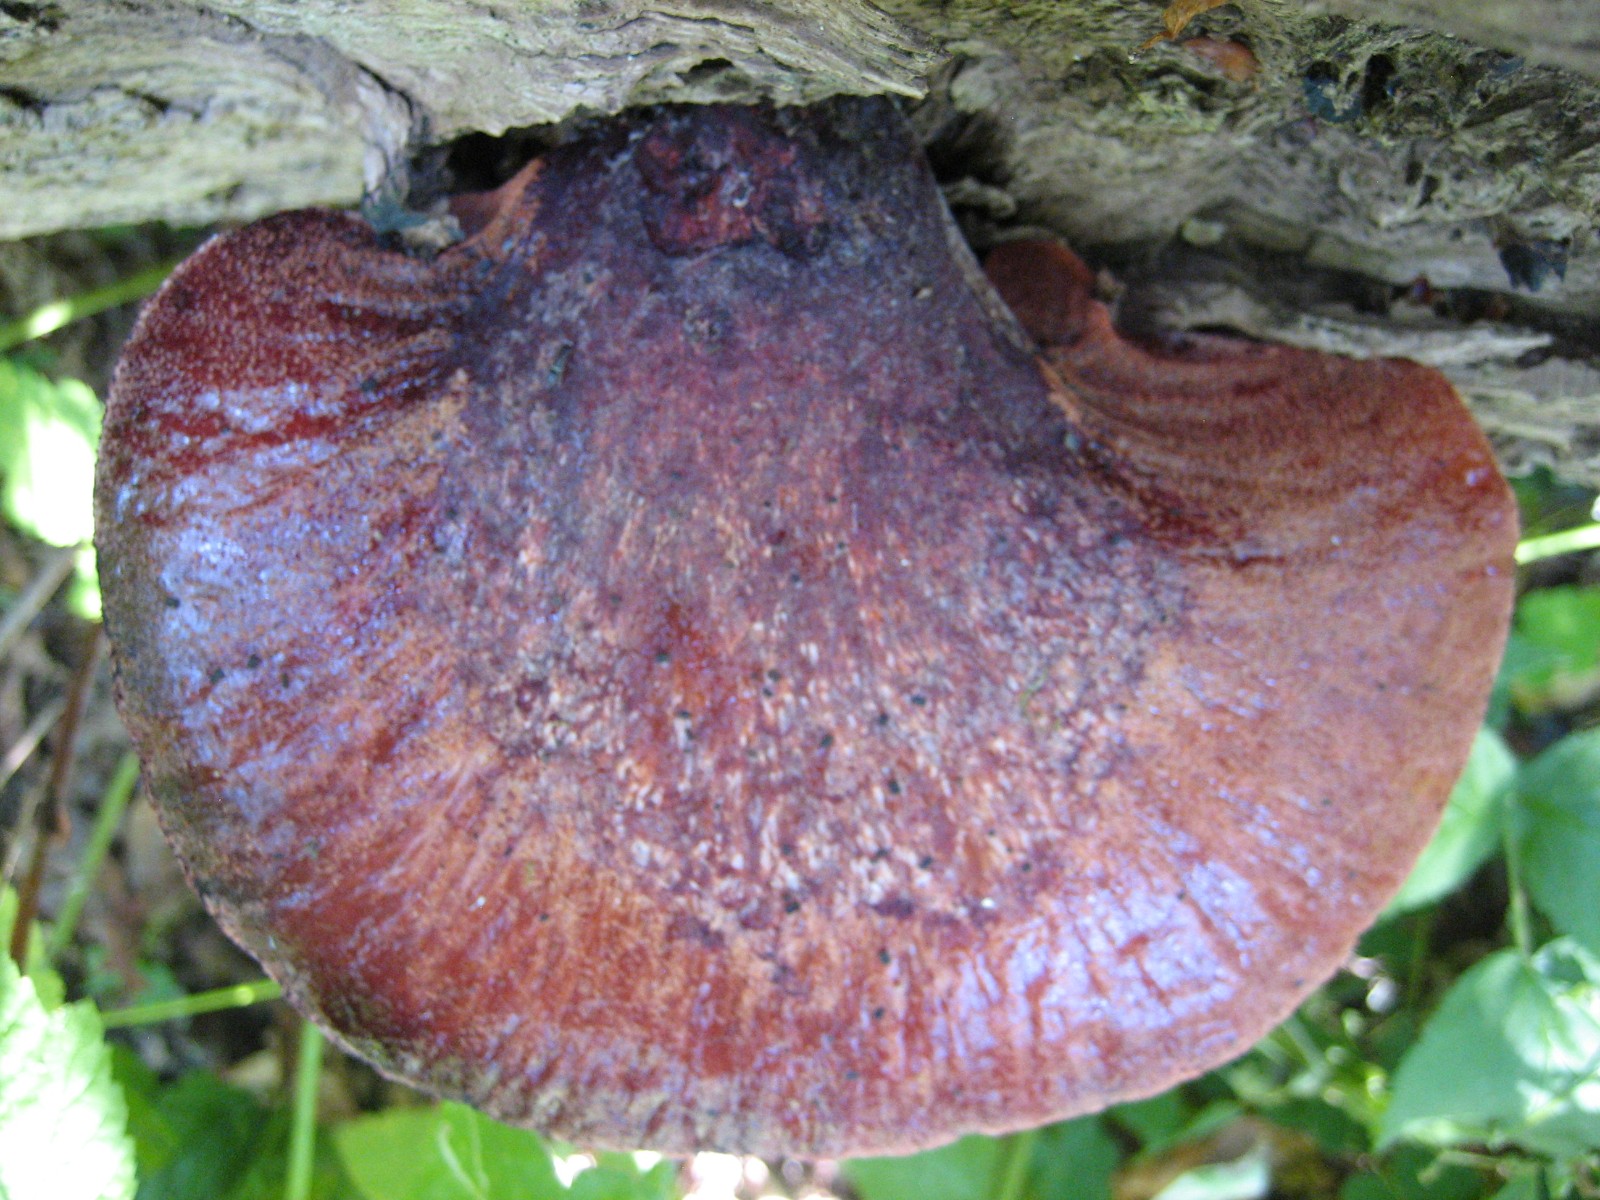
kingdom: Fungi
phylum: Basidiomycota
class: Agaricomycetes
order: Agaricales
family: Fistulinaceae
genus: Fistulina
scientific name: Fistulina hepatica
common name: oksetunge
